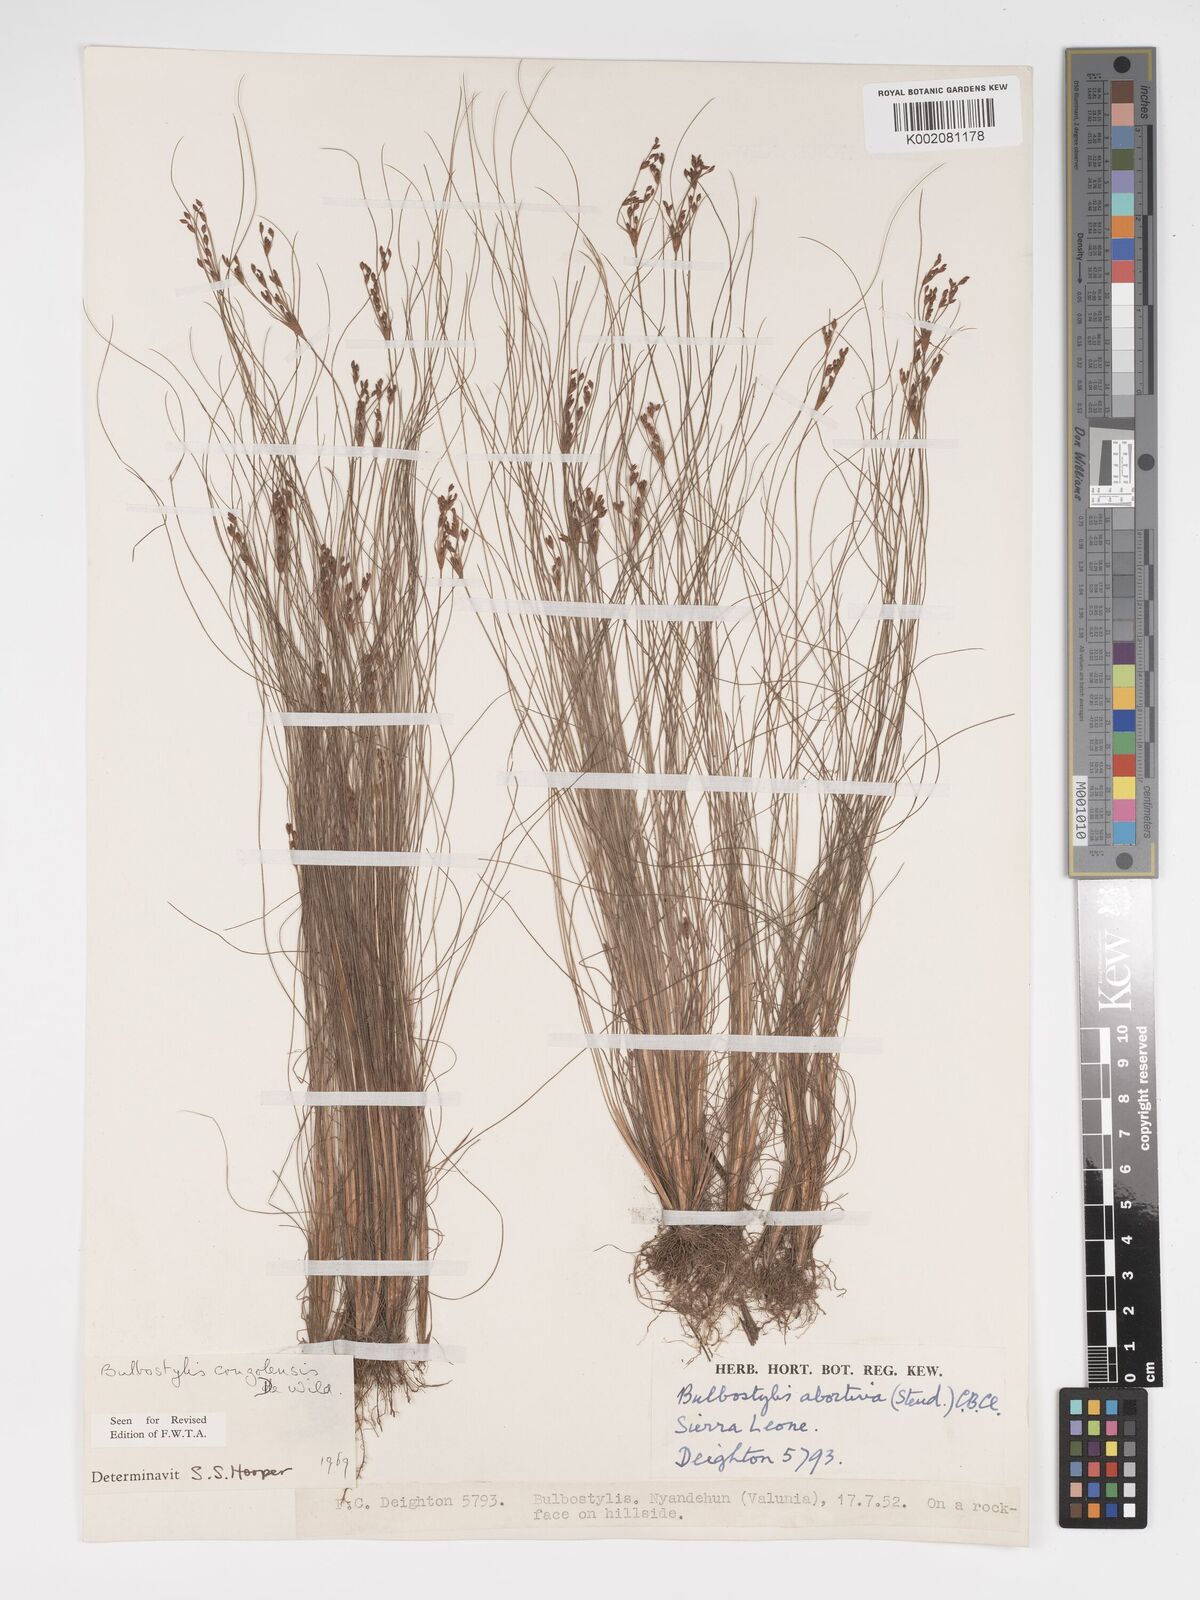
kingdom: Plantae
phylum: Tracheophyta
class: Liliopsida
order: Poales
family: Cyperaceae
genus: Bulbostylis
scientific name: Bulbostylis congolensis
